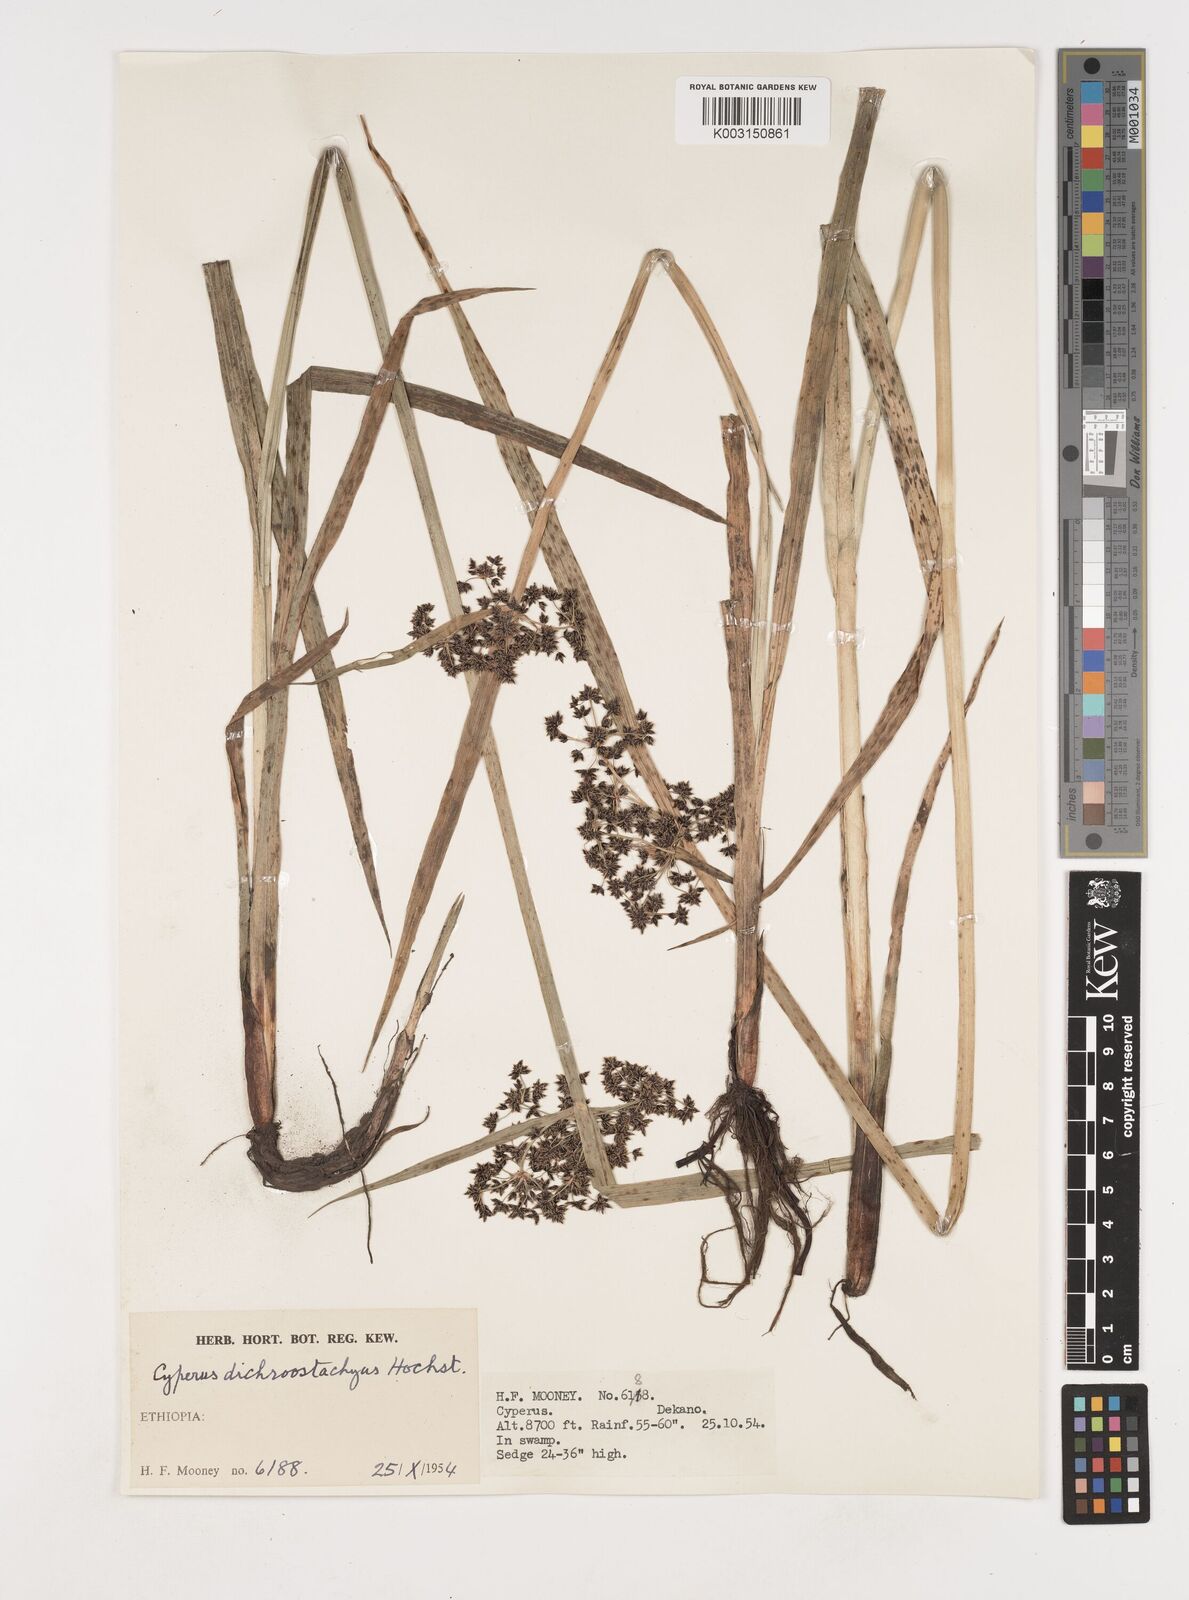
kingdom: Plantae
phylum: Tracheophyta
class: Liliopsida
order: Poales
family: Cyperaceae
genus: Cyperus
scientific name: Cyperus dichrostachyus
